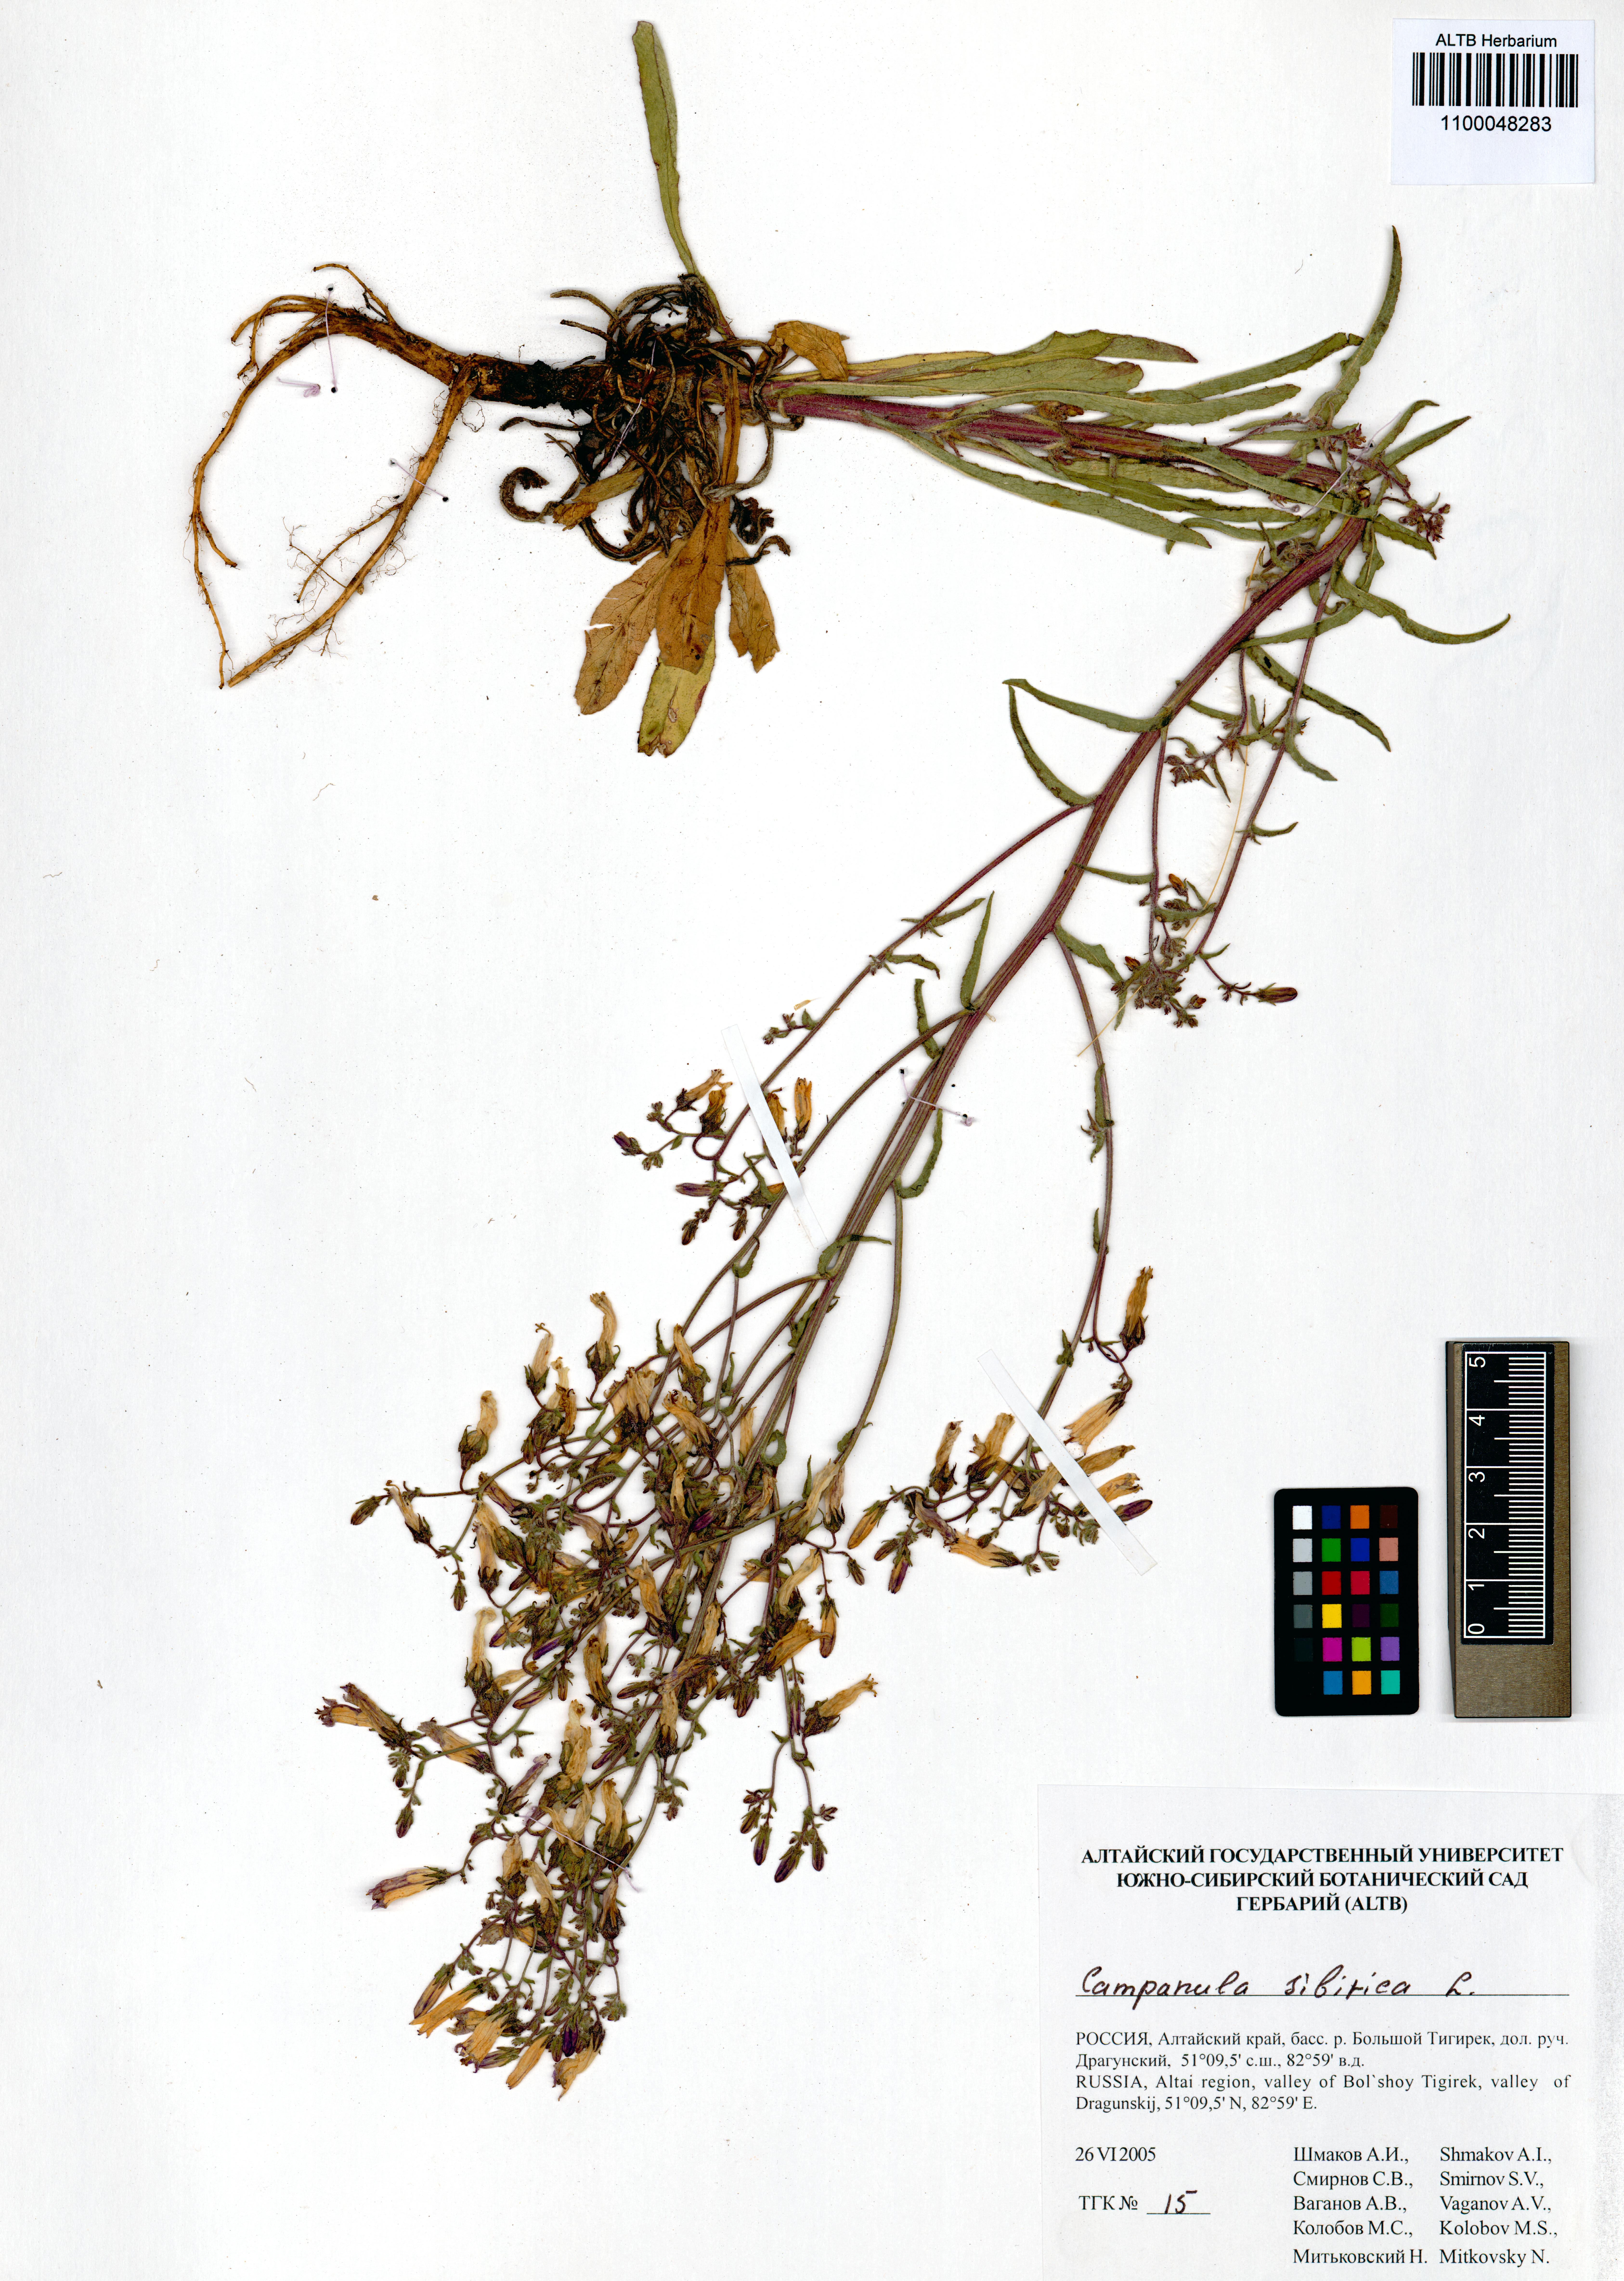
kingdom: Plantae
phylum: Tracheophyta
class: Magnoliopsida
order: Asterales
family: Campanulaceae
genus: Campanula
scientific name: Campanula sibirica
